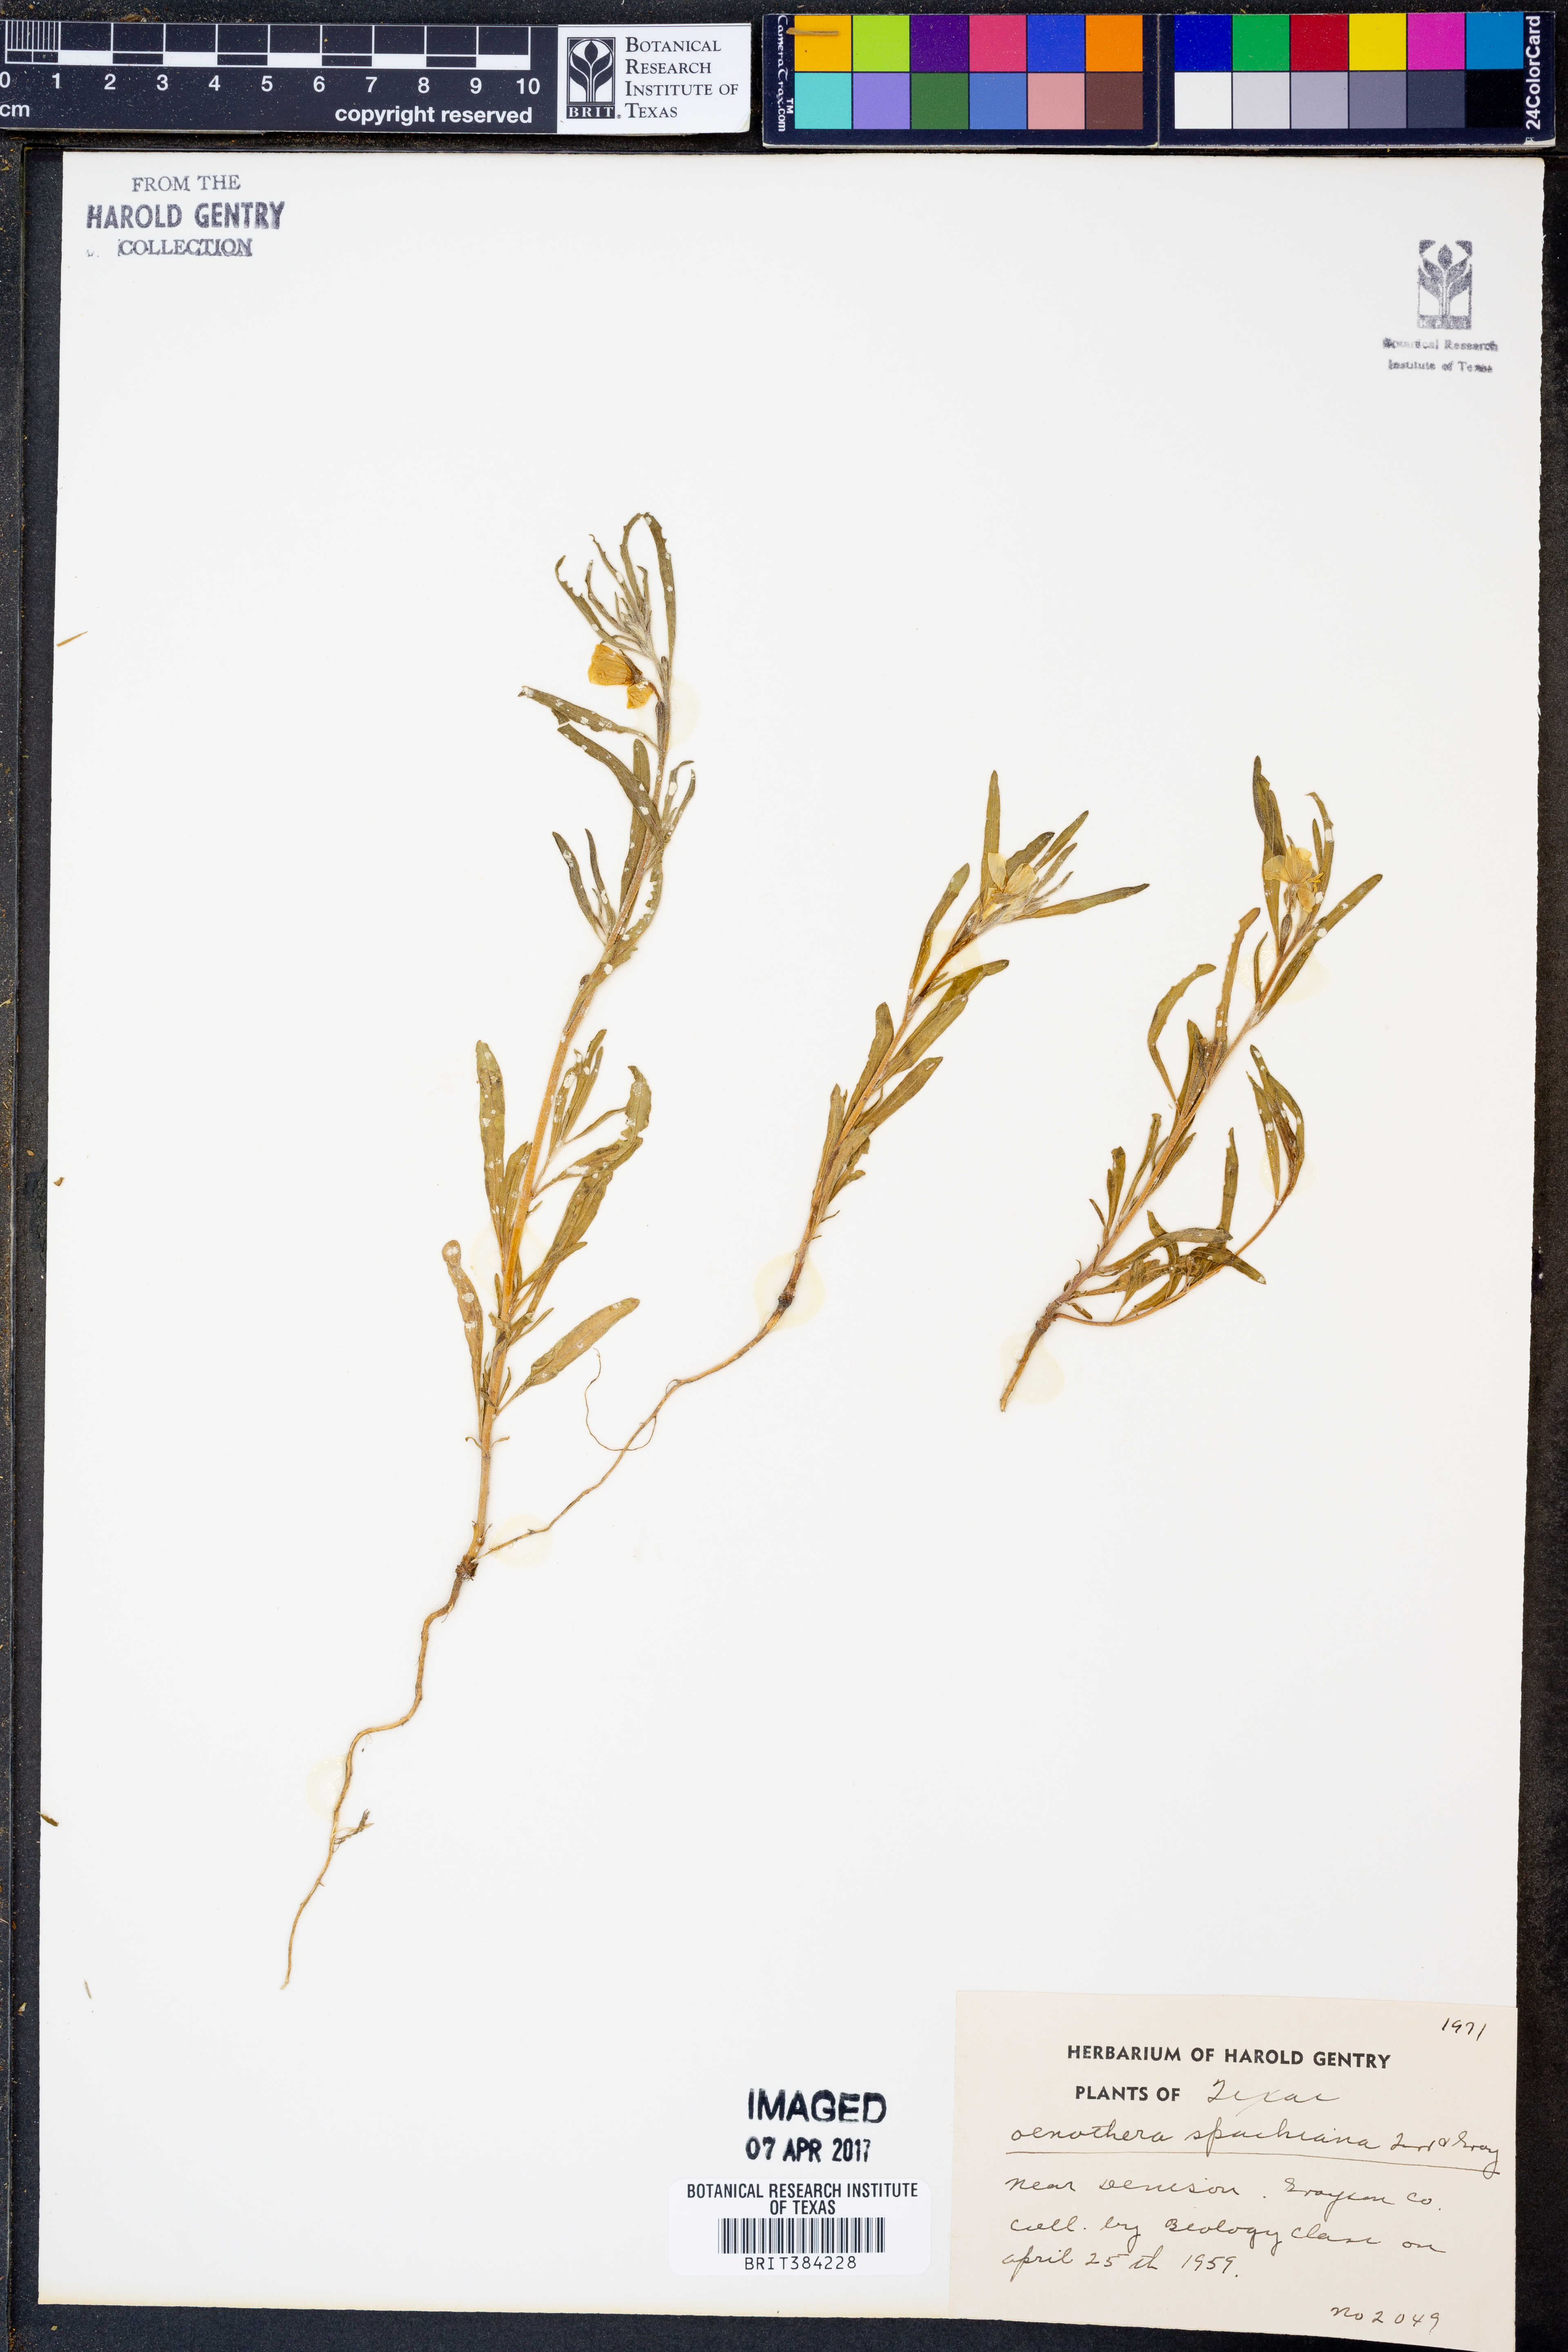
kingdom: Plantae
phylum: Tracheophyta
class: Magnoliopsida
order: Myrtales
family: Onagraceae
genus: Oenothera
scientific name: Oenothera spachiana
